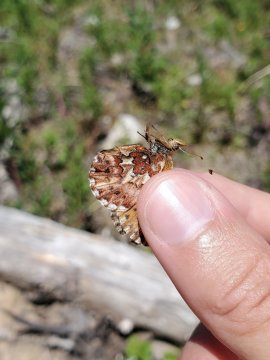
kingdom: Animalia
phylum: Arthropoda
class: Insecta
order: Lepidoptera
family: Nymphalidae
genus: Boloria
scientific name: Boloria chariclea
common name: Arctic Fritillary
